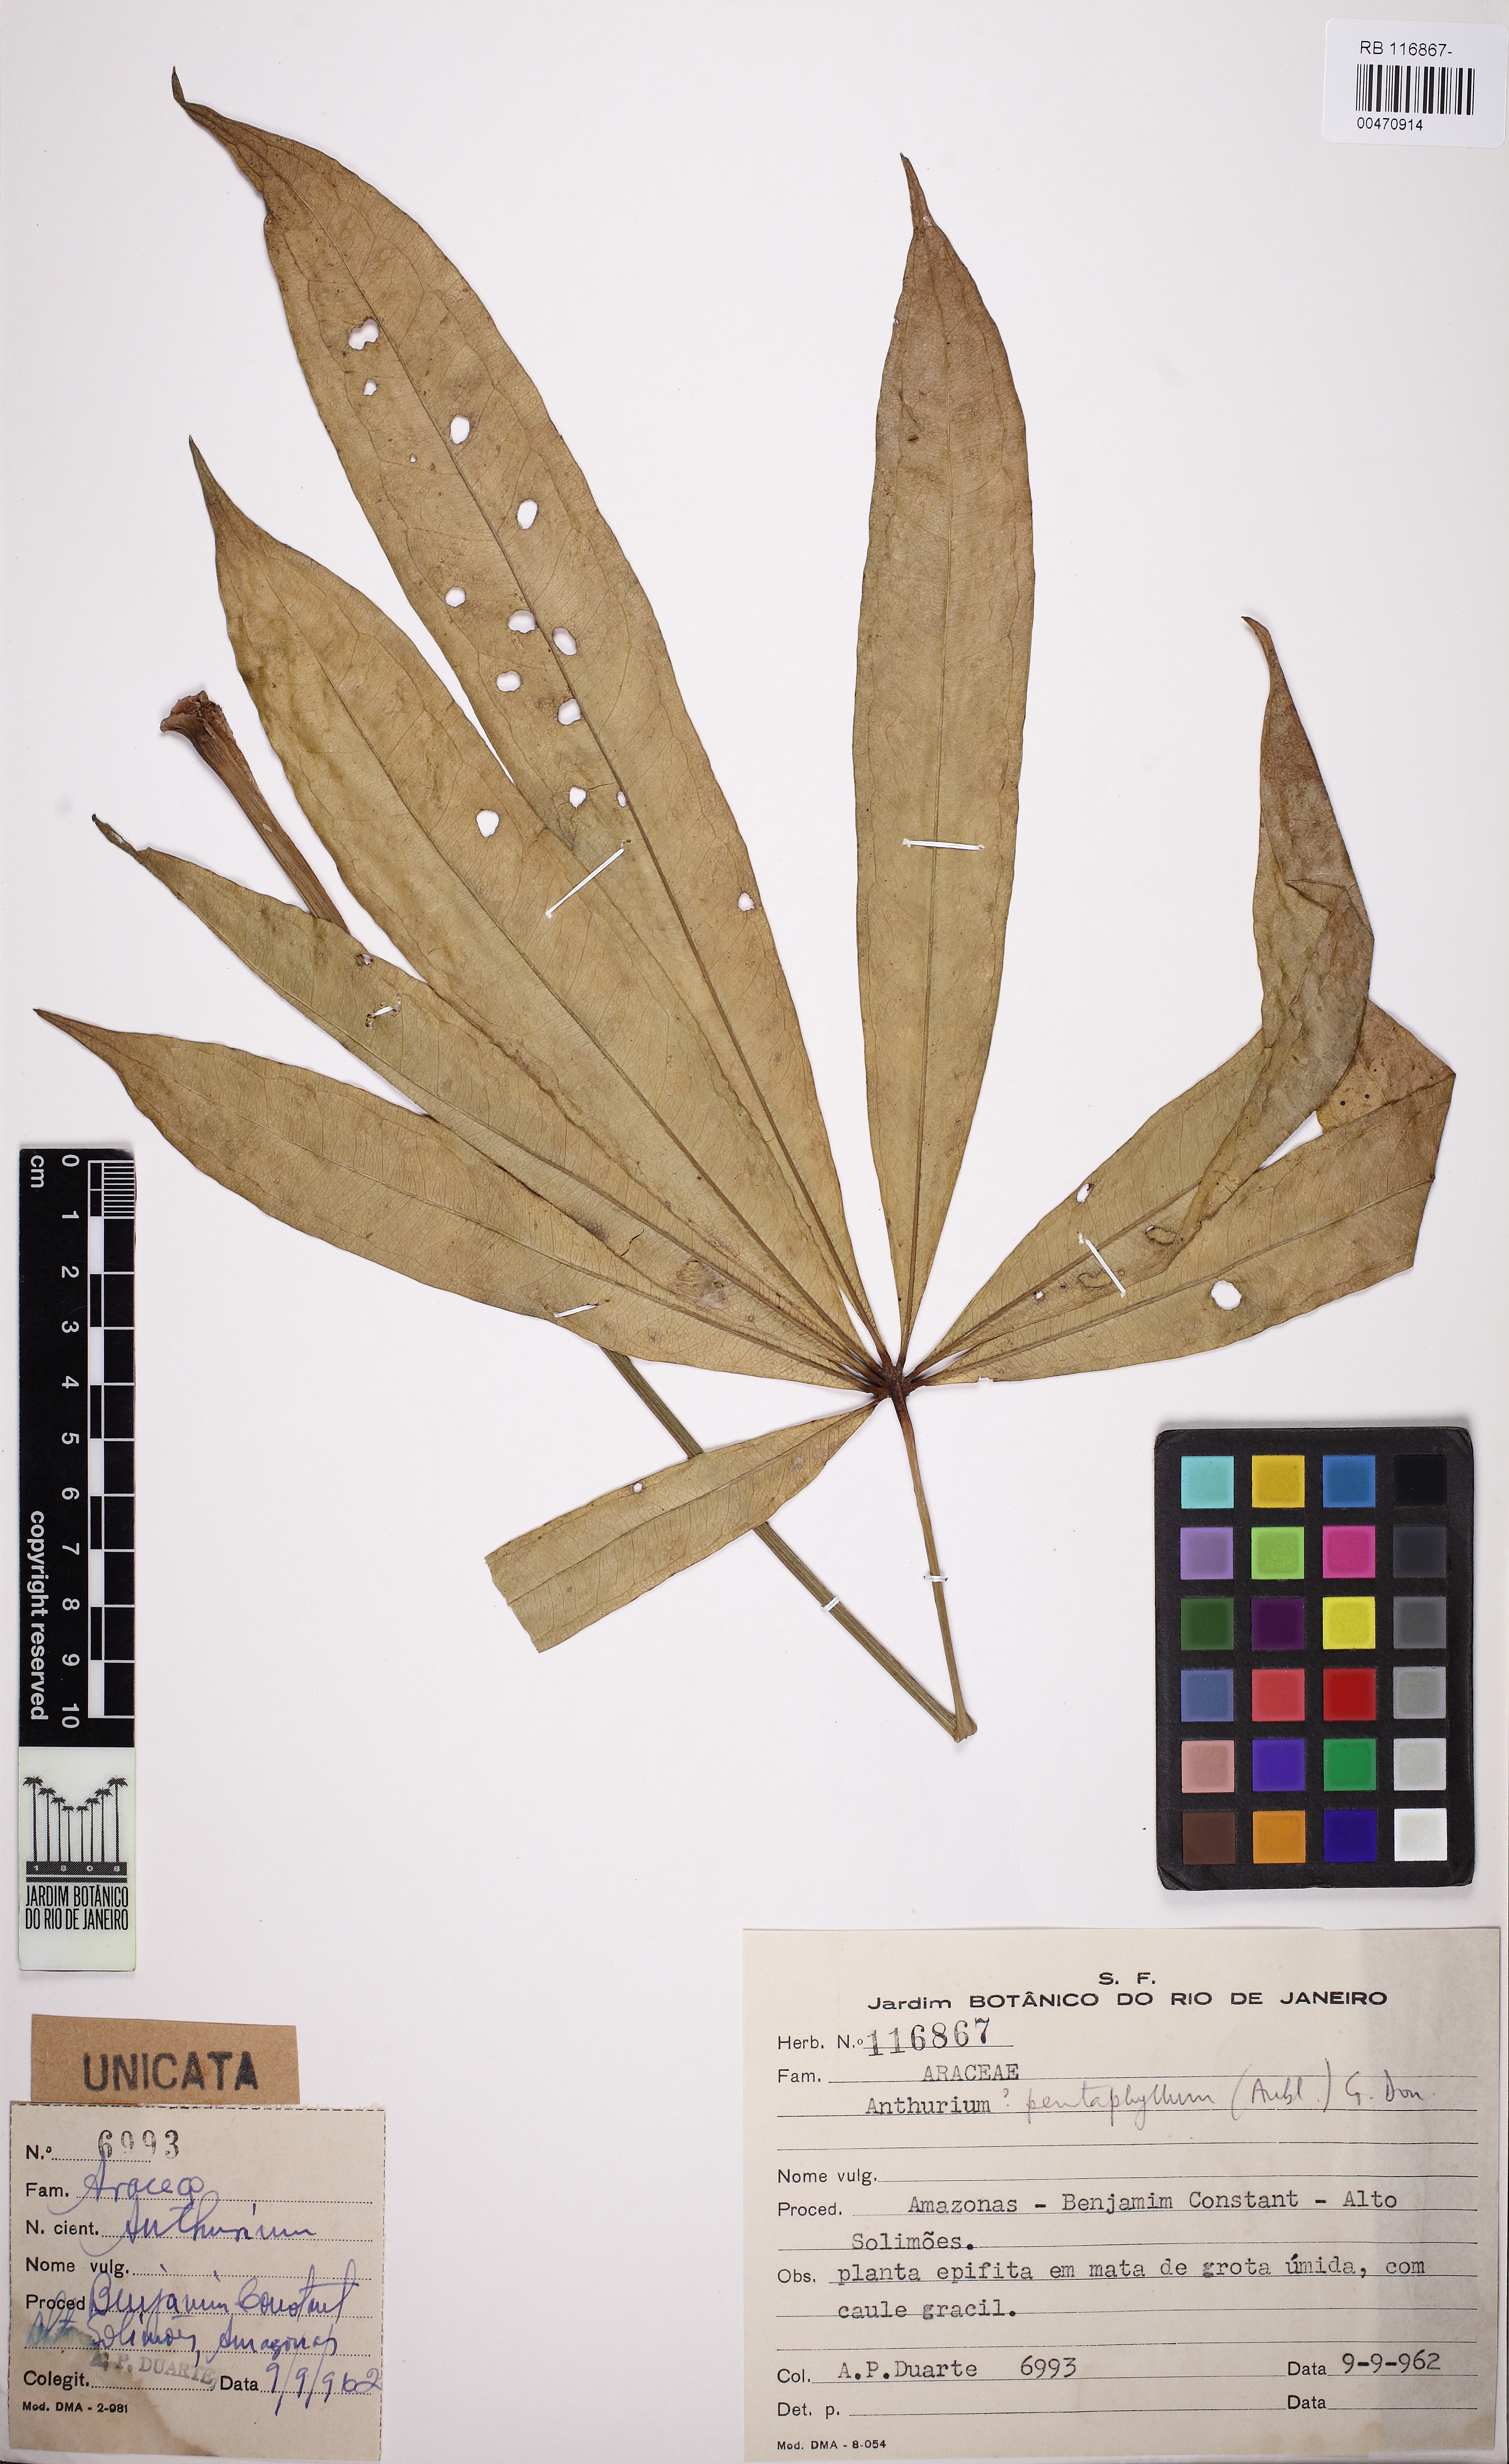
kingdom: Plantae
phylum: Tracheophyta
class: Liliopsida
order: Alismatales
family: Araceae
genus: Anthurium
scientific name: Anthurium pentaphyllum
